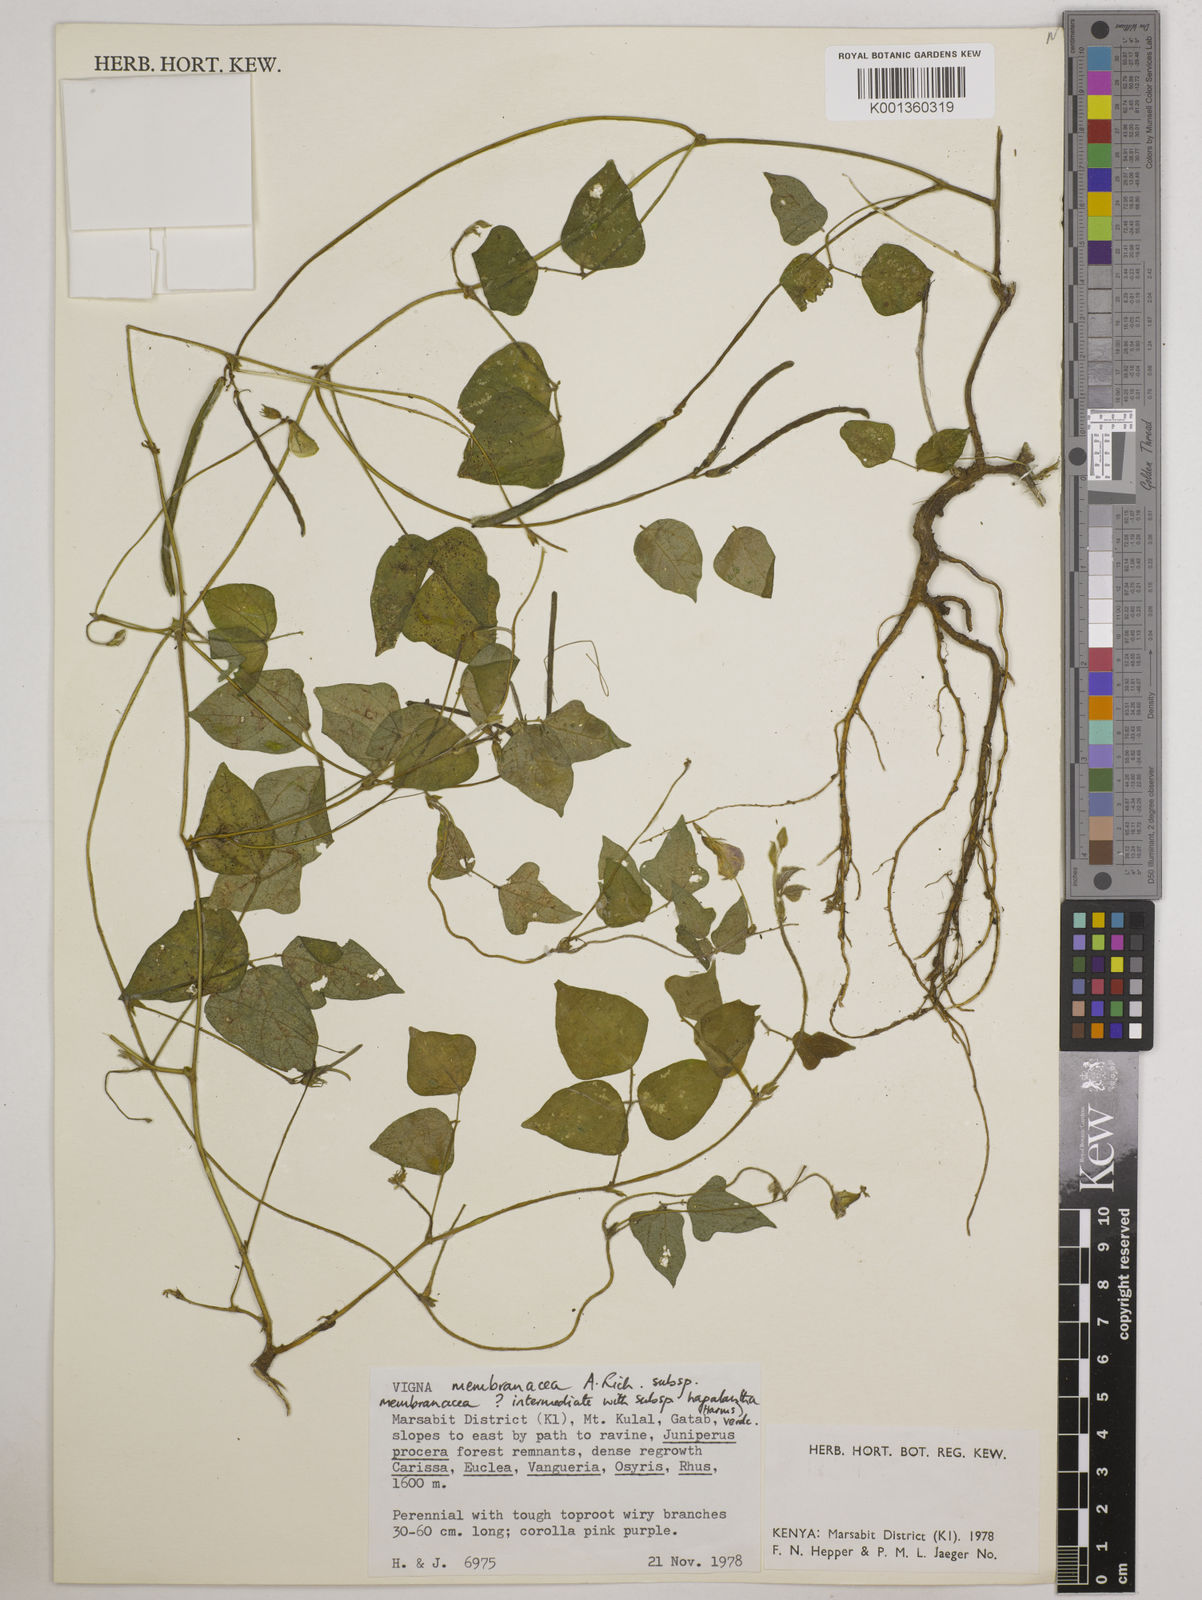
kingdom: Plantae
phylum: Tracheophyta
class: Magnoliopsida
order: Fabales
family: Fabaceae
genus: Vigna
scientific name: Vigna
